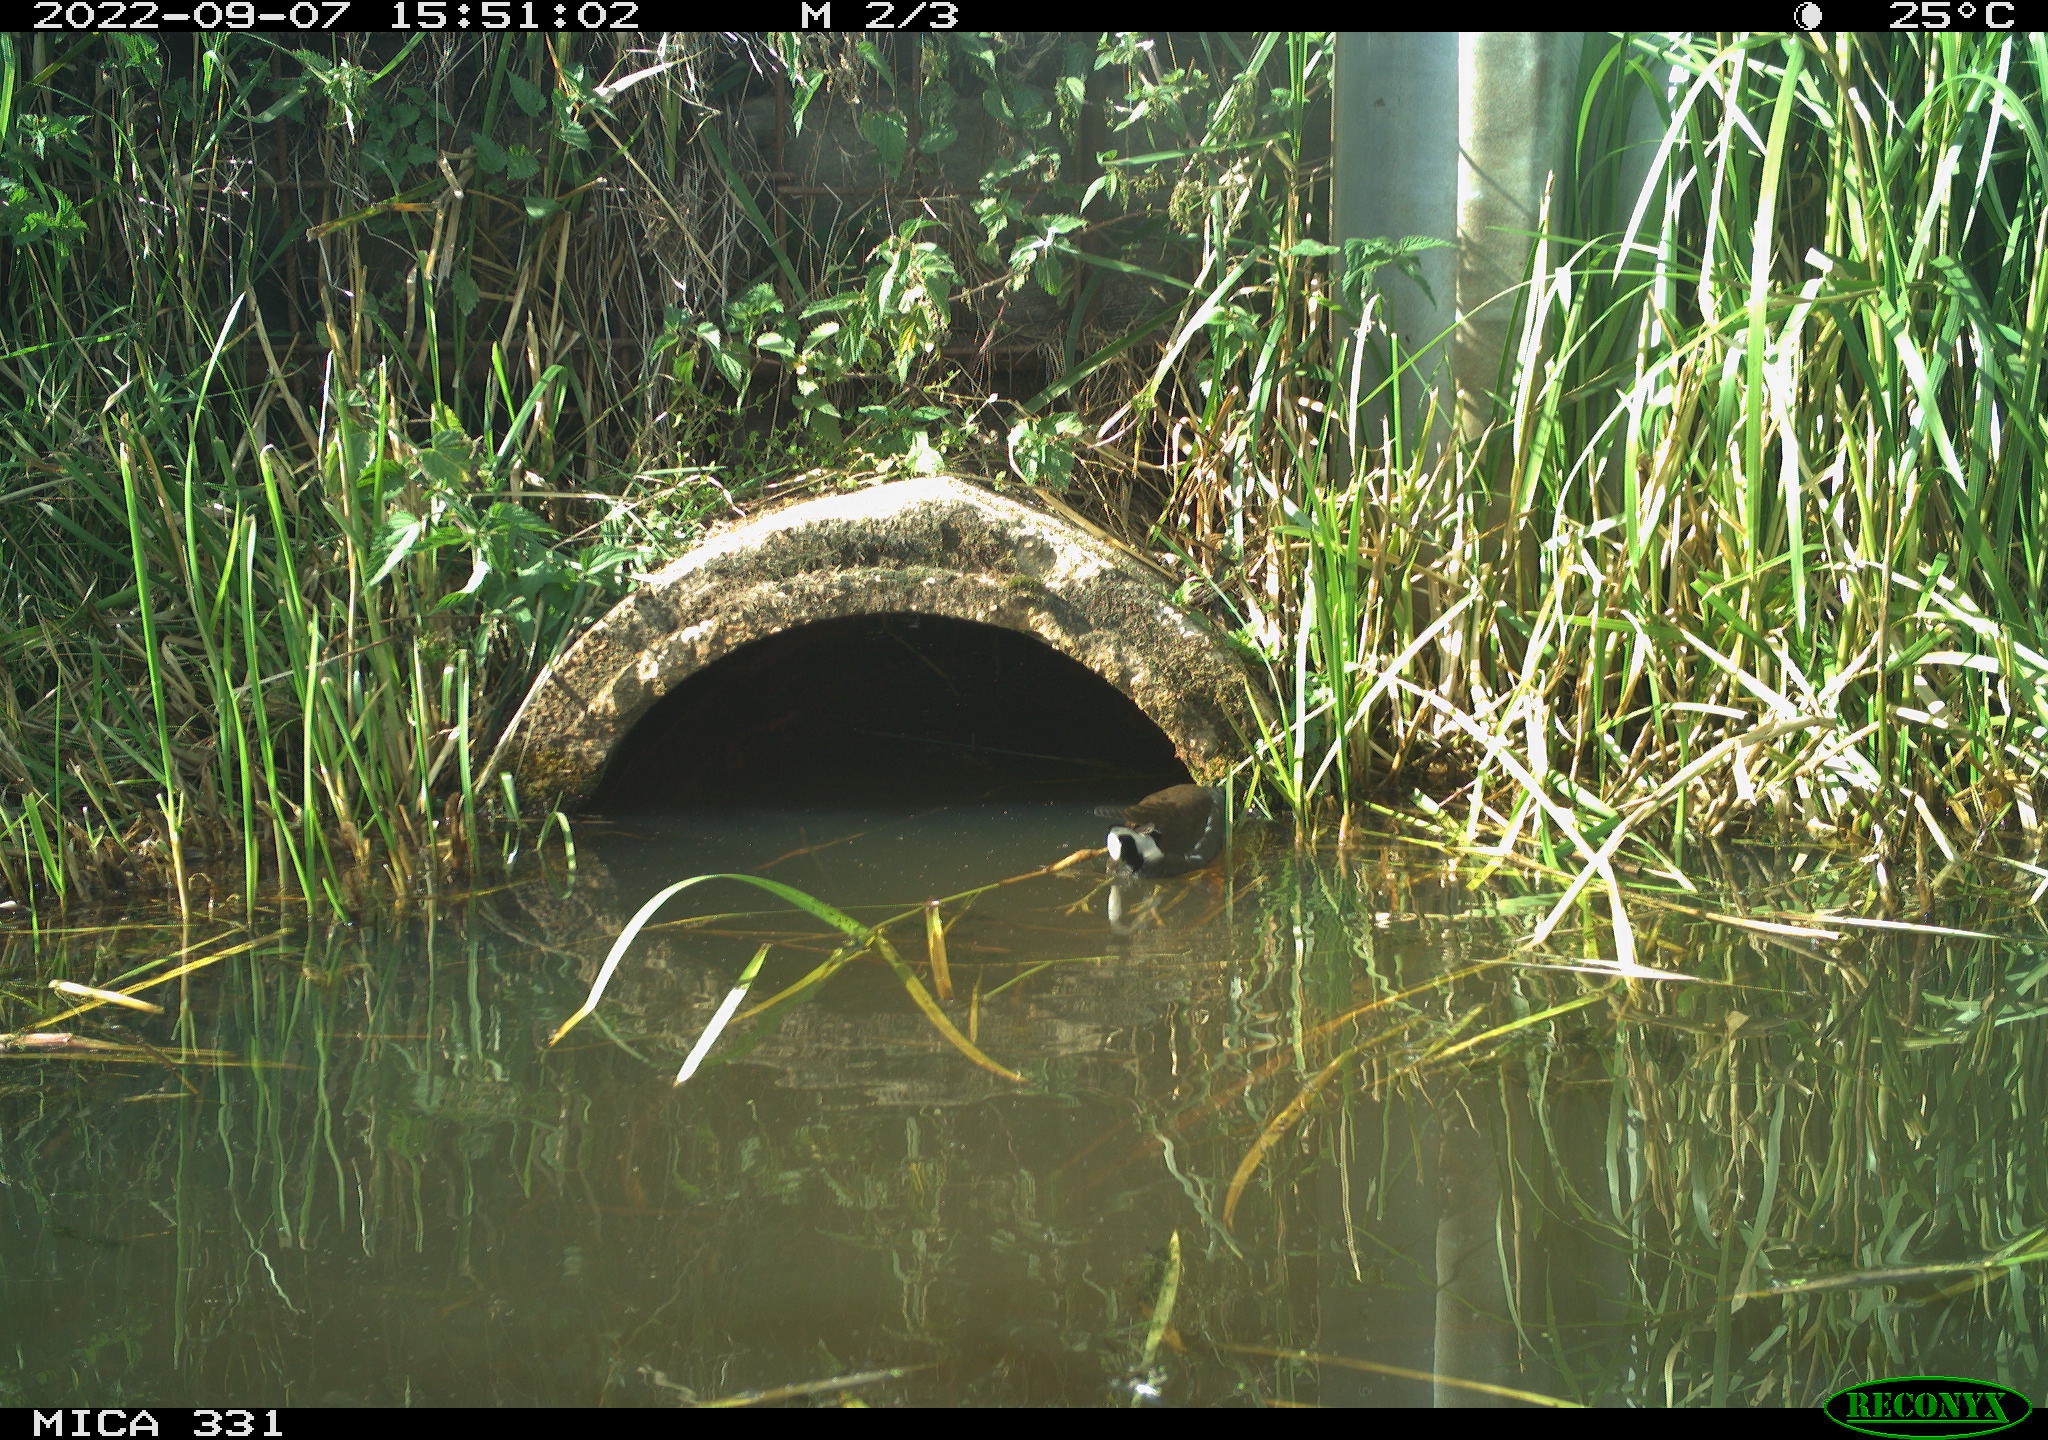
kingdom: Animalia
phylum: Chordata
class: Aves
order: Gruiformes
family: Rallidae
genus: Gallinula
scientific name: Gallinula chloropus
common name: Common moorhen
